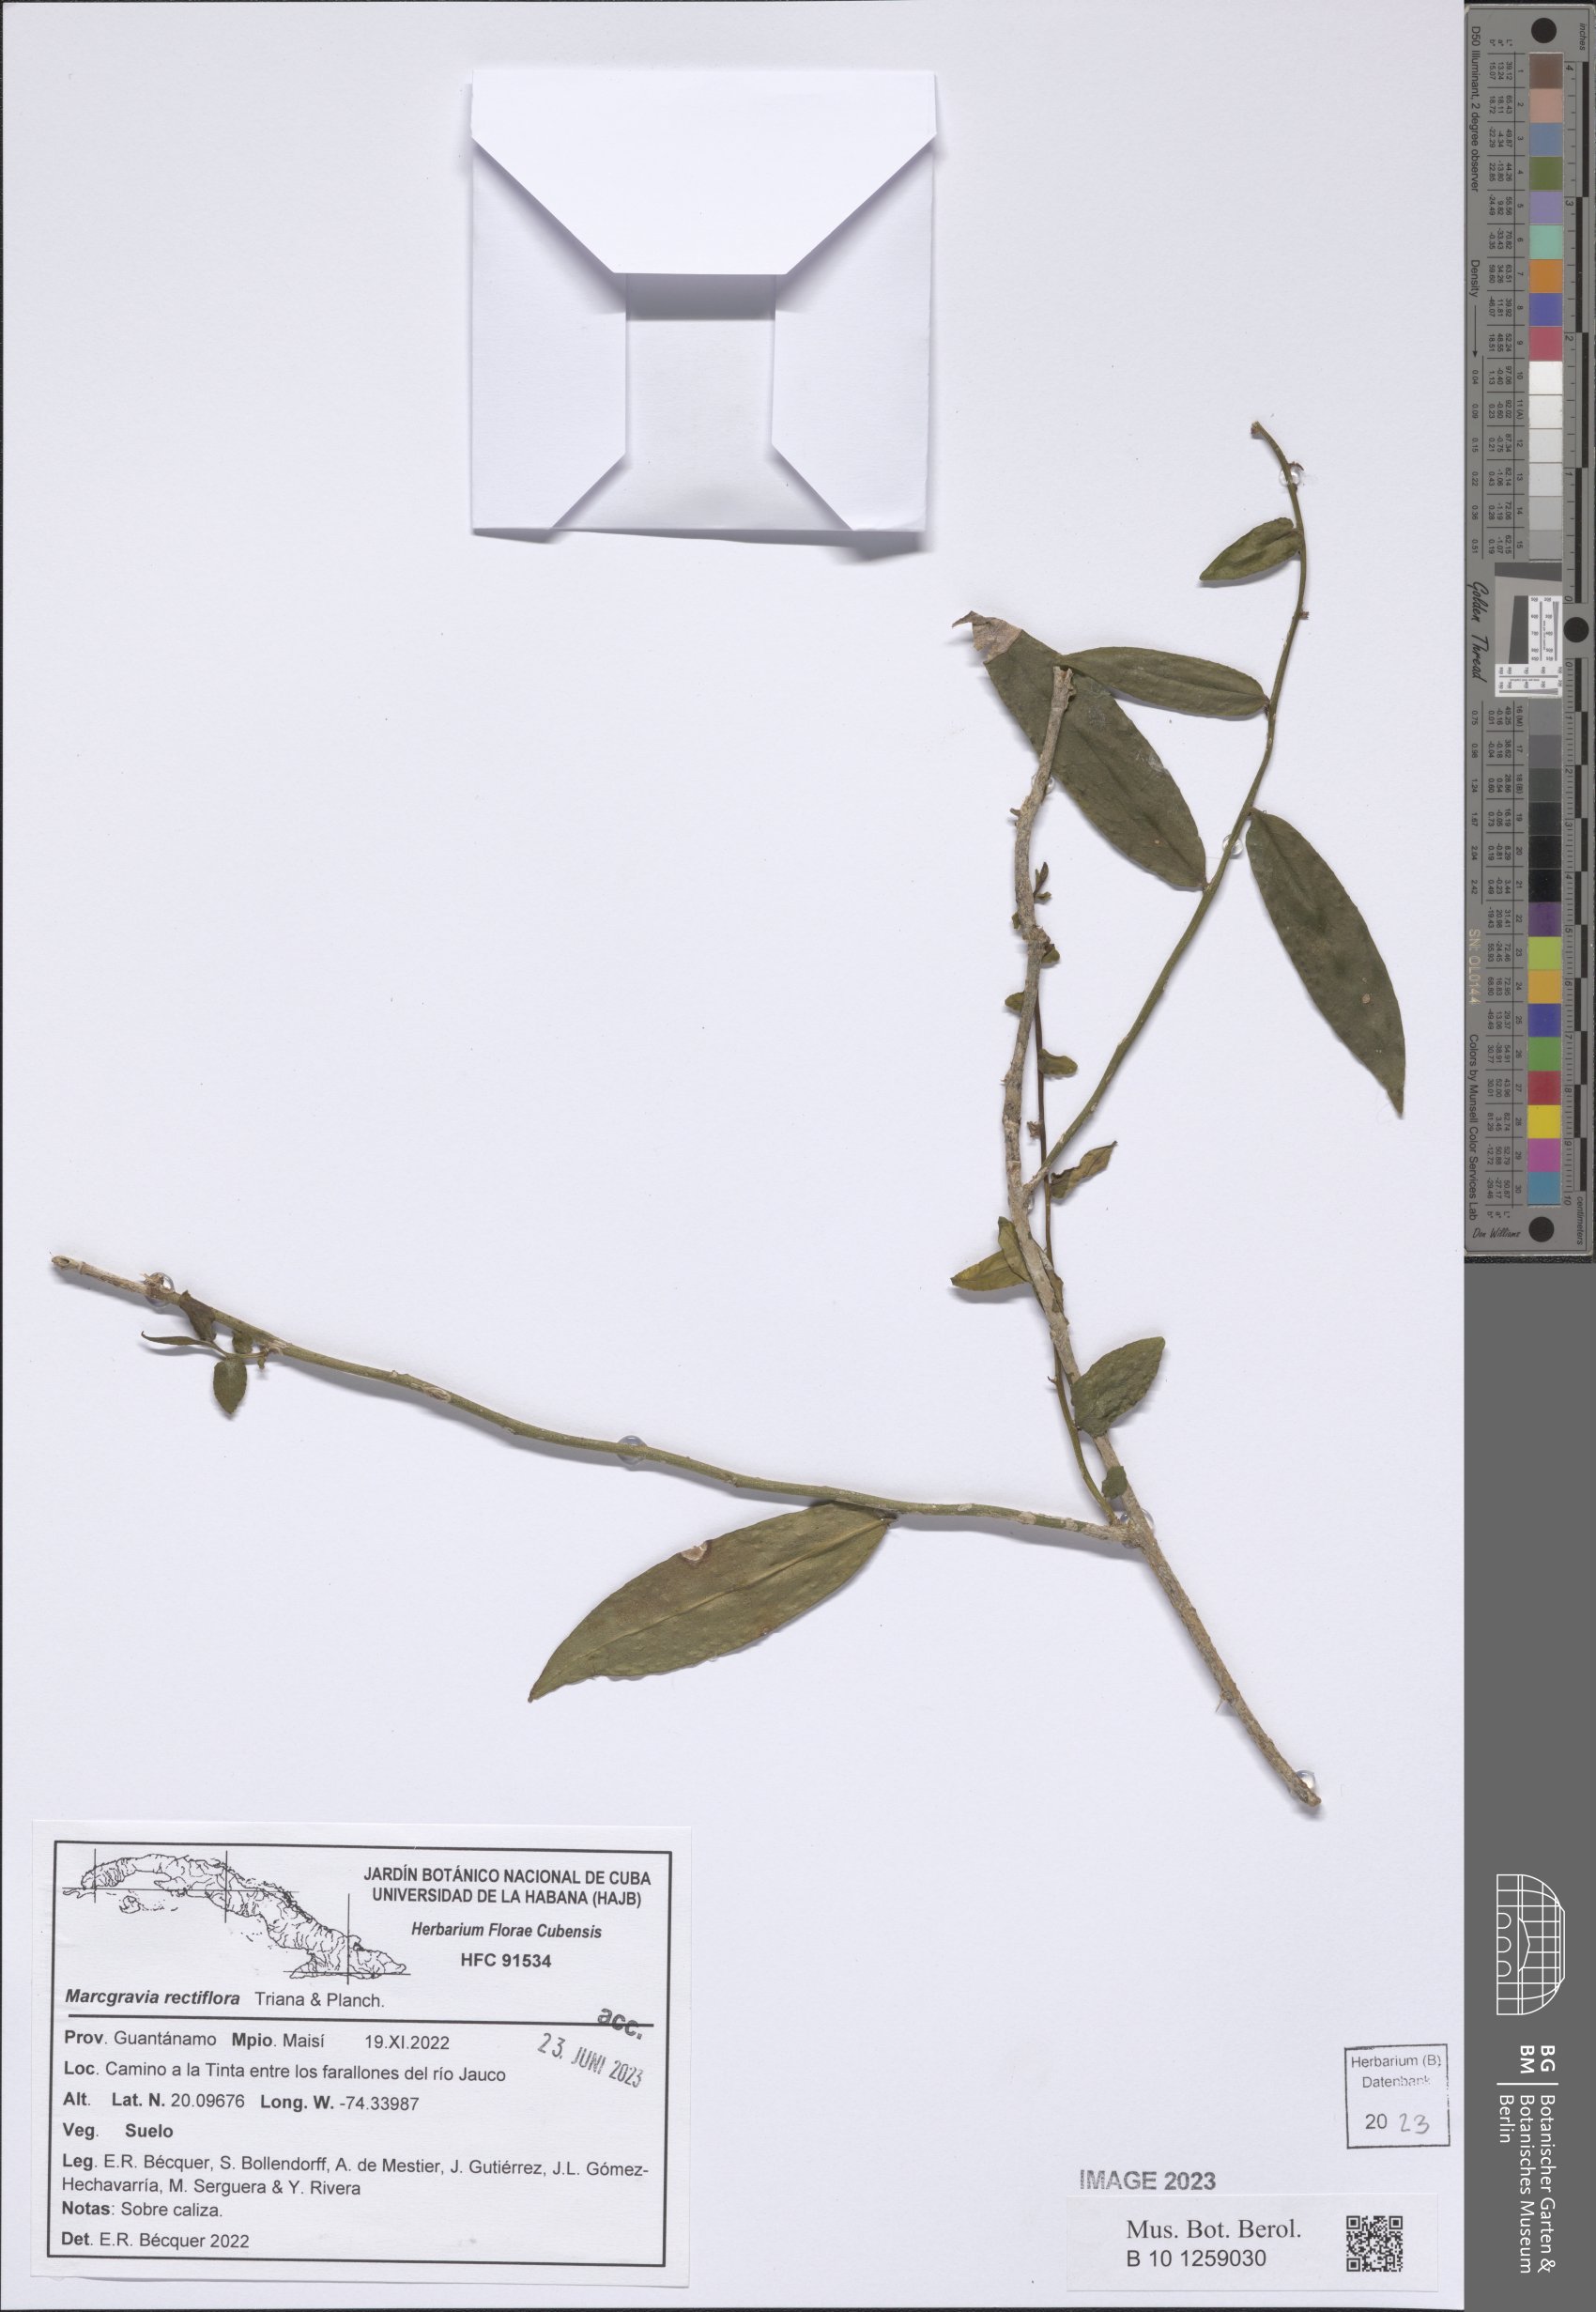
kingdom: Plantae
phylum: Tracheophyta
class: Magnoliopsida
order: Ericales
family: Marcgraviaceae
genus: Marcgravia
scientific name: Marcgravia rectiflora
